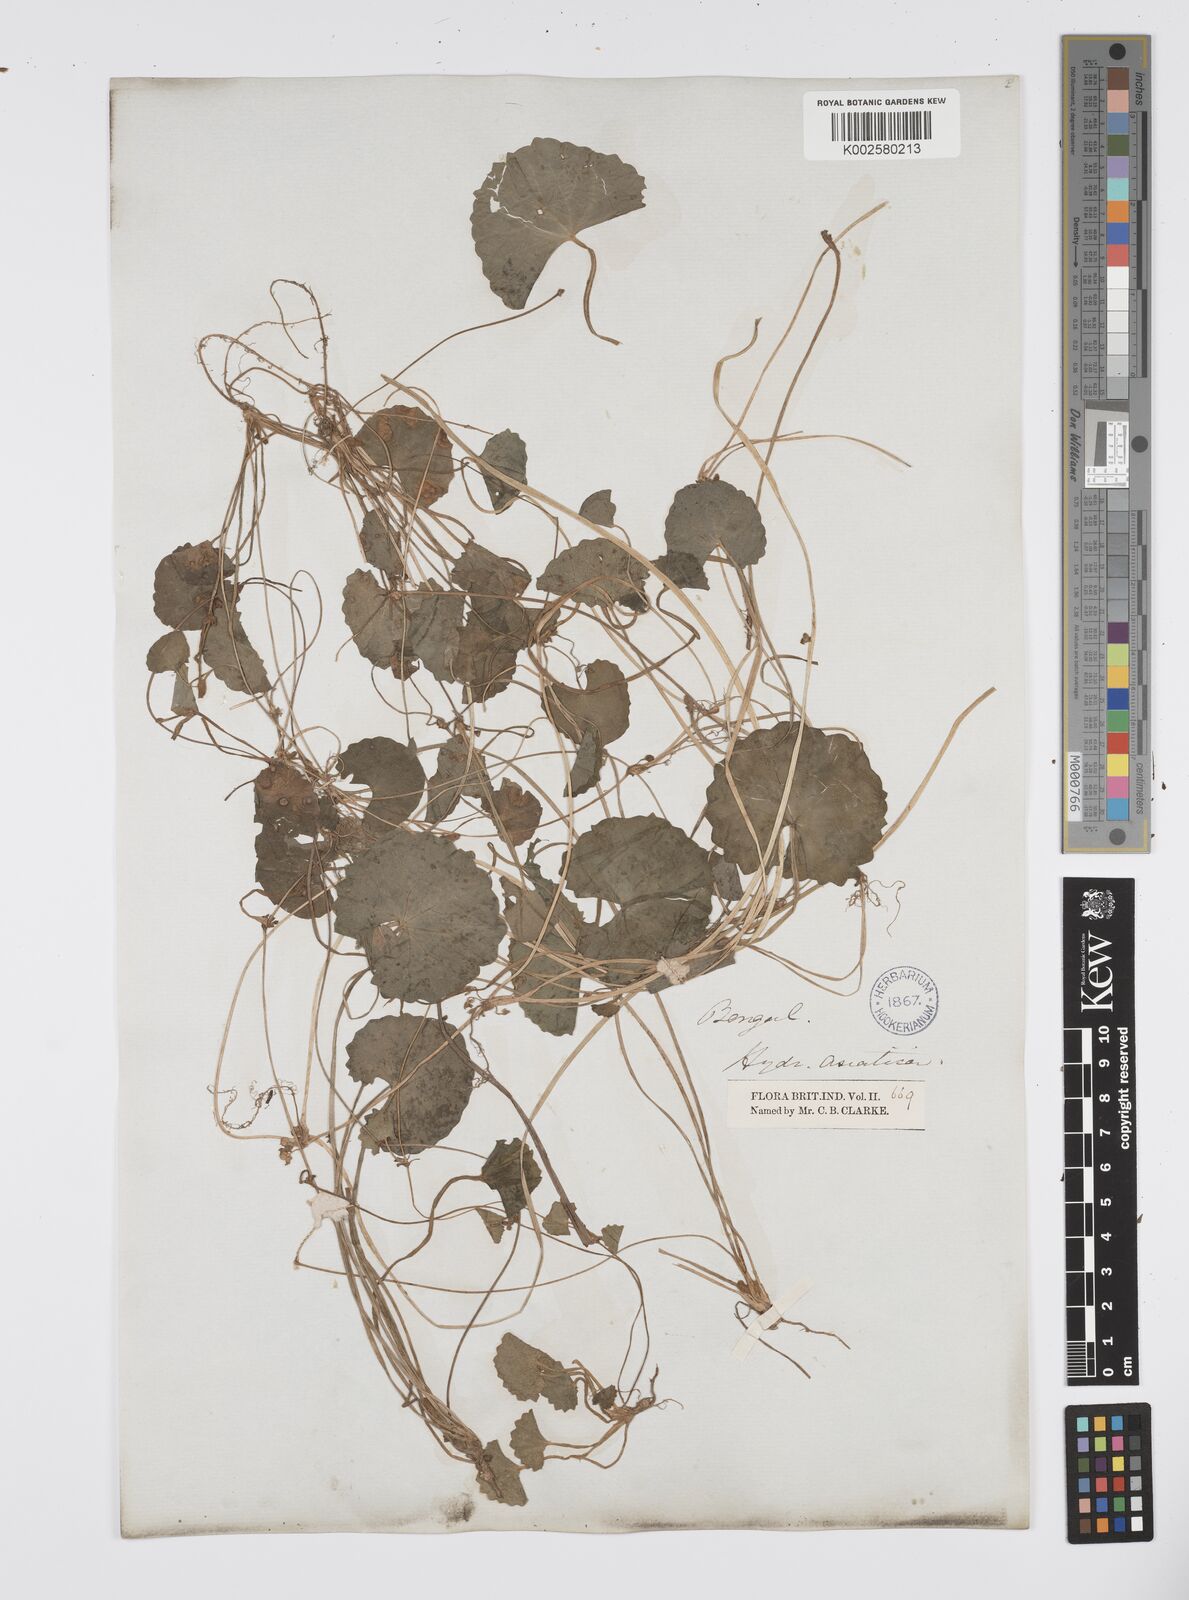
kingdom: Plantae
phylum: Tracheophyta
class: Magnoliopsida
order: Apiales
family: Apiaceae
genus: Centella
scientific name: Centella asiatica
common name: Spadeleaf
